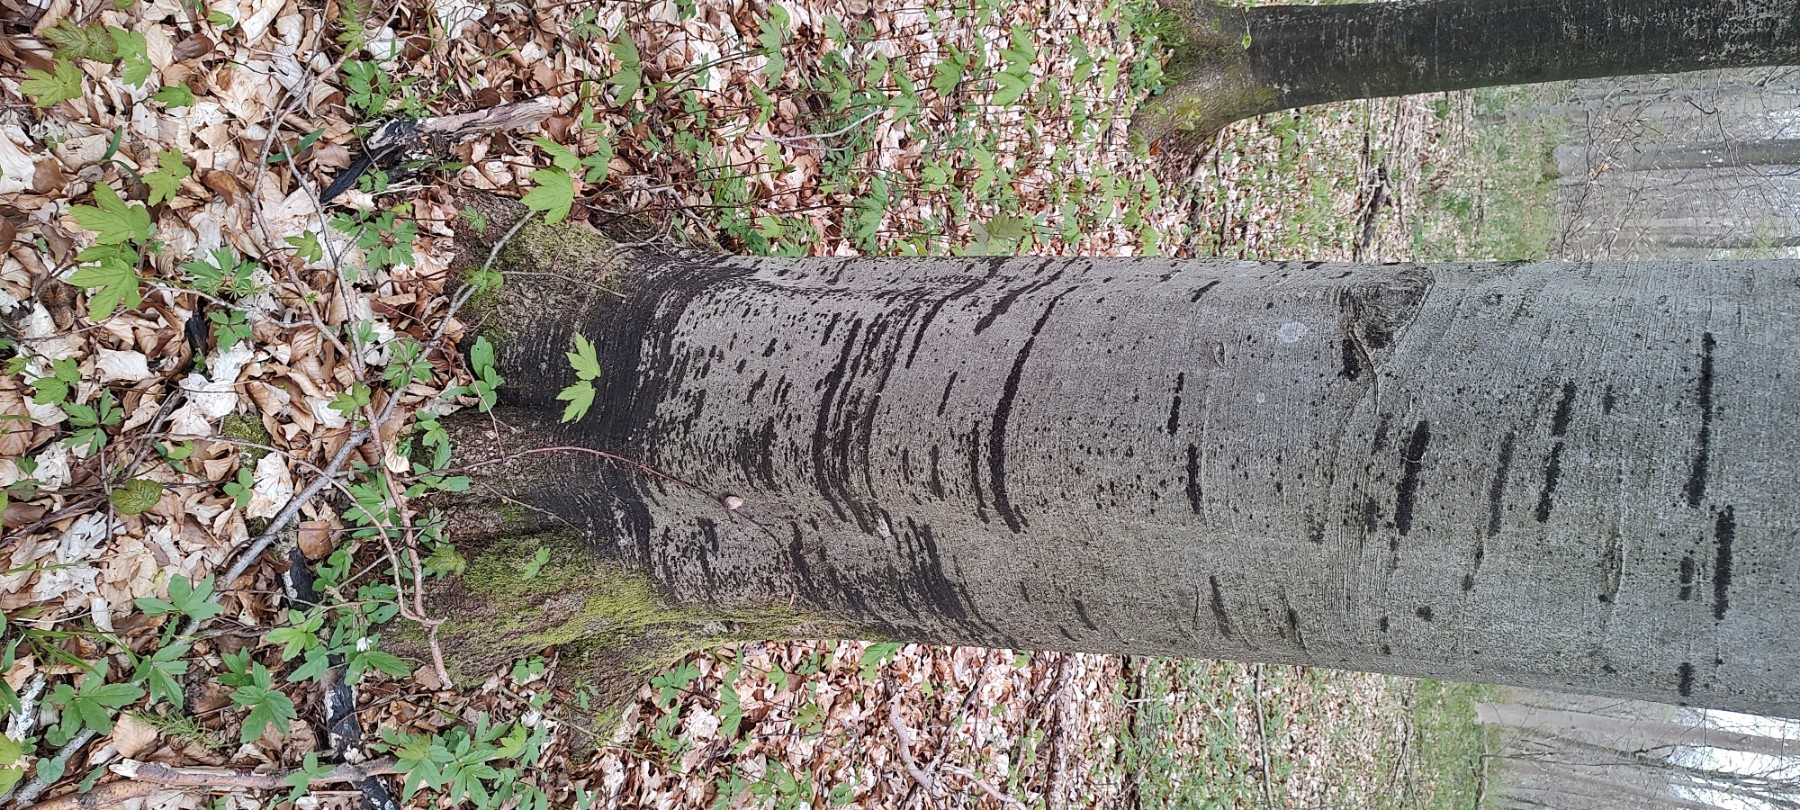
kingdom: Fungi
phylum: Ascomycota
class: Leotiomycetes
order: Rhytismatales
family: Ascodichaenaceae
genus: Ascodichaena
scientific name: Ascodichaena rugosa
